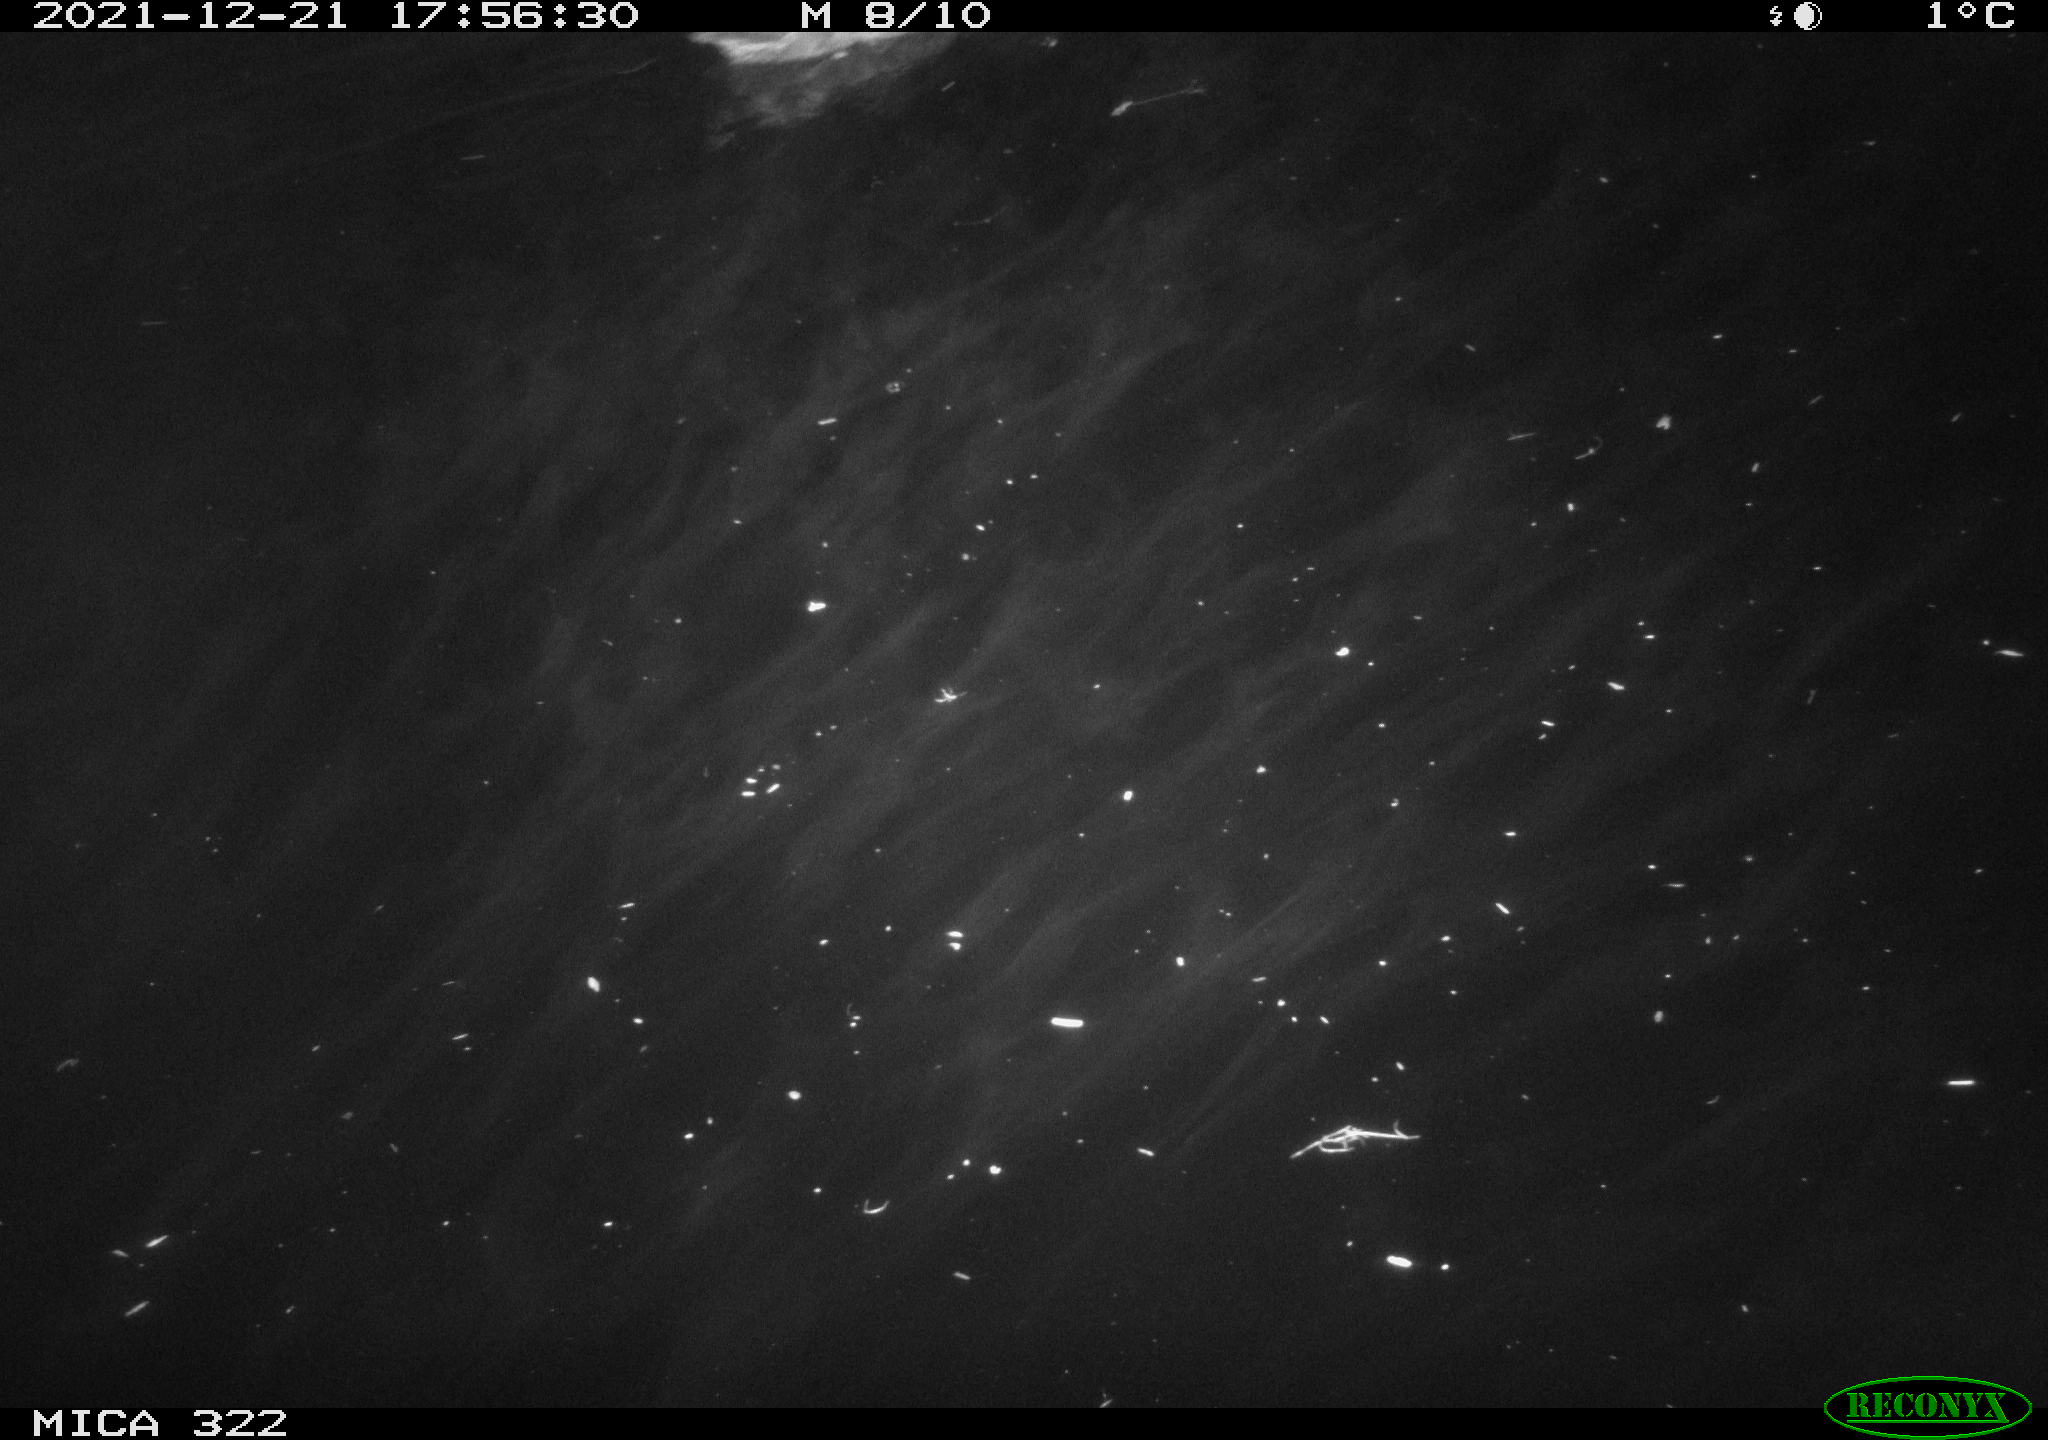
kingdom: Animalia
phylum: Chordata
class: Aves
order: Anseriformes
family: Anatidae
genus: Anas
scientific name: Anas
